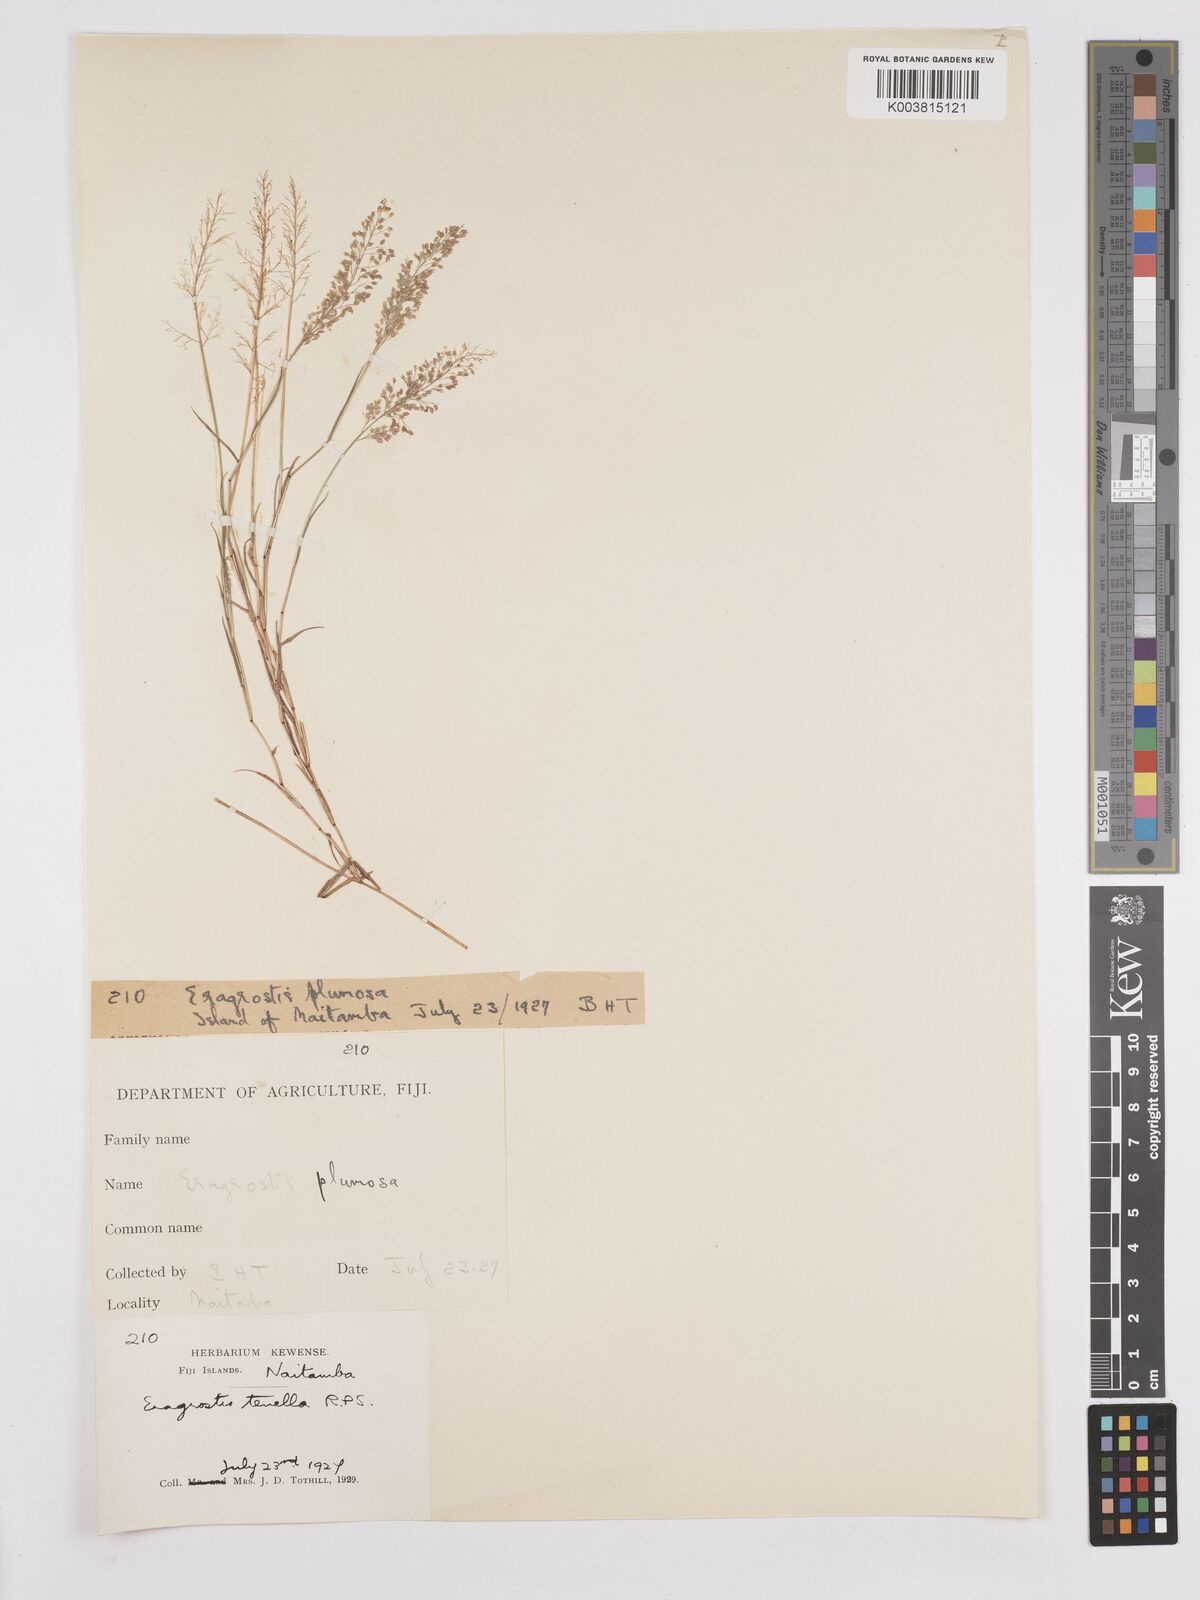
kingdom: Plantae
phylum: Tracheophyta
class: Liliopsida
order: Poales
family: Poaceae
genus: Eragrostis
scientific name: Eragrostis tenella
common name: Japanese lovegrass
